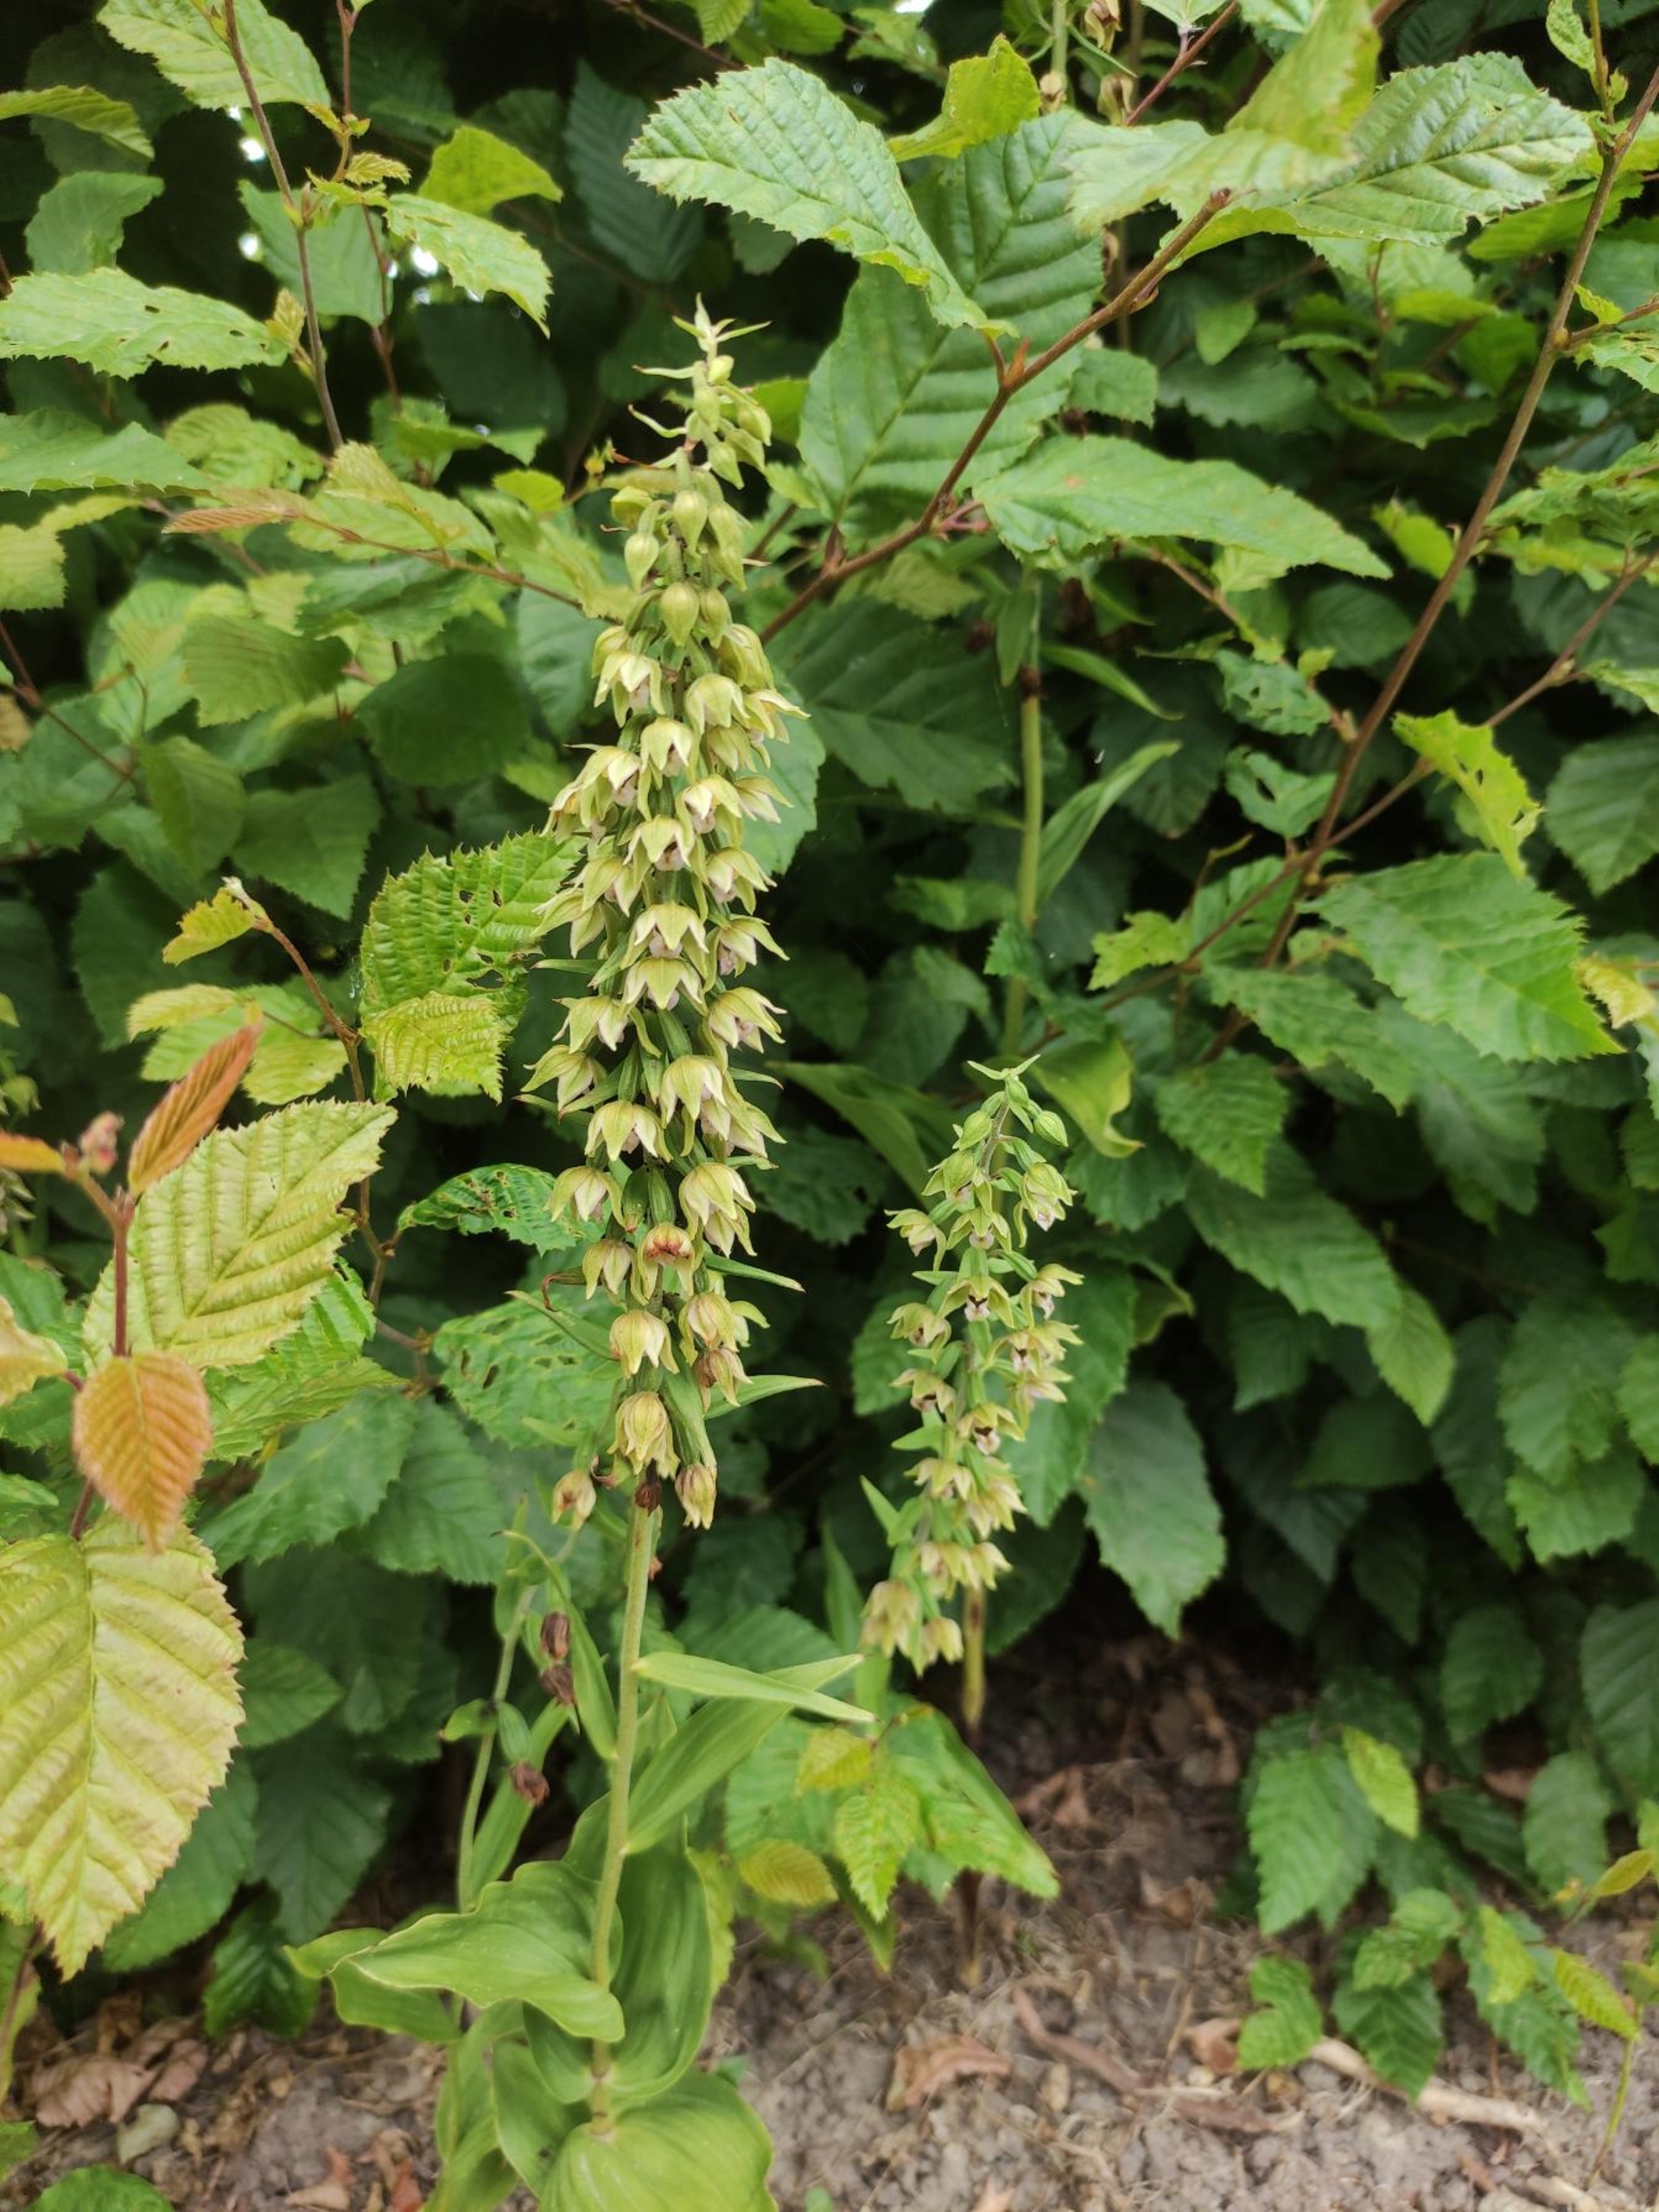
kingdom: Plantae
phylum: Tracheophyta
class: Liliopsida
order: Asparagales
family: Orchidaceae
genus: Epipactis
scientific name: Epipactis helleborine
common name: Skov-hullæbe
